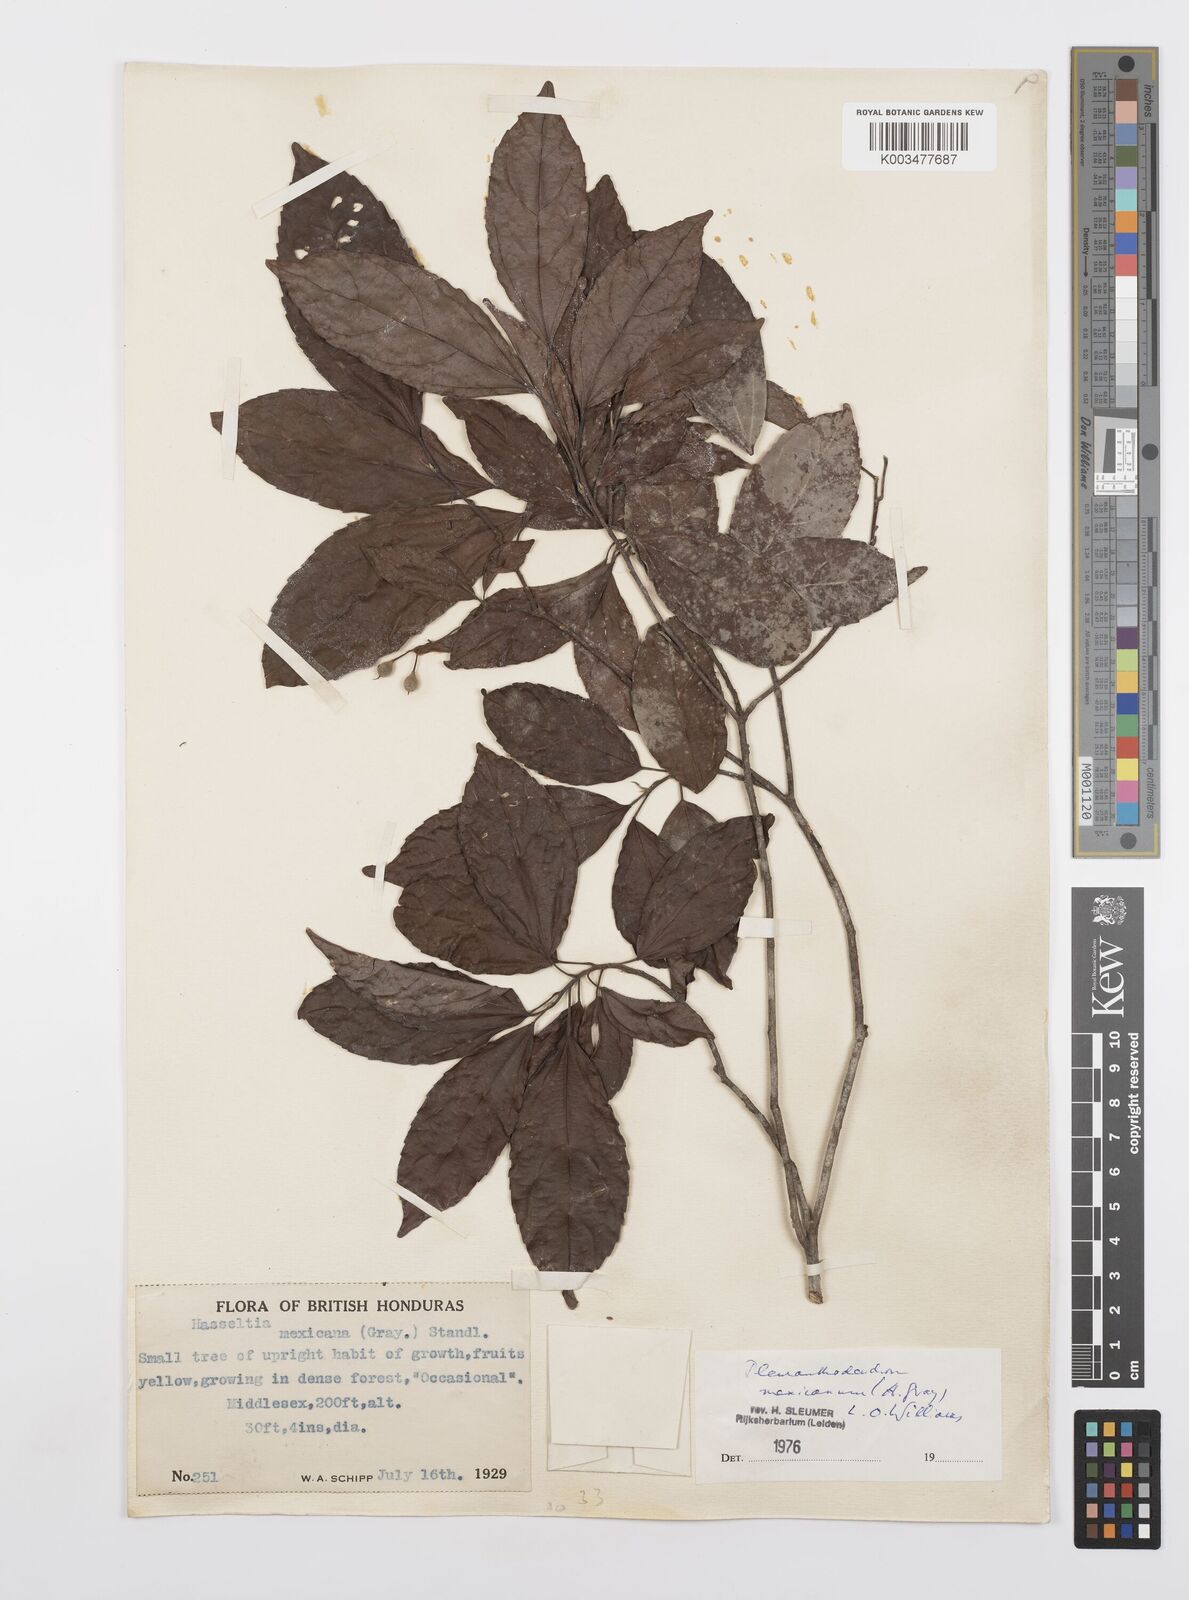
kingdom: Plantae
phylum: Tracheophyta
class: Magnoliopsida
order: Malpighiales
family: Salicaceae
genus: Pleuranthodendron
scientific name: Pleuranthodendron lindenii
